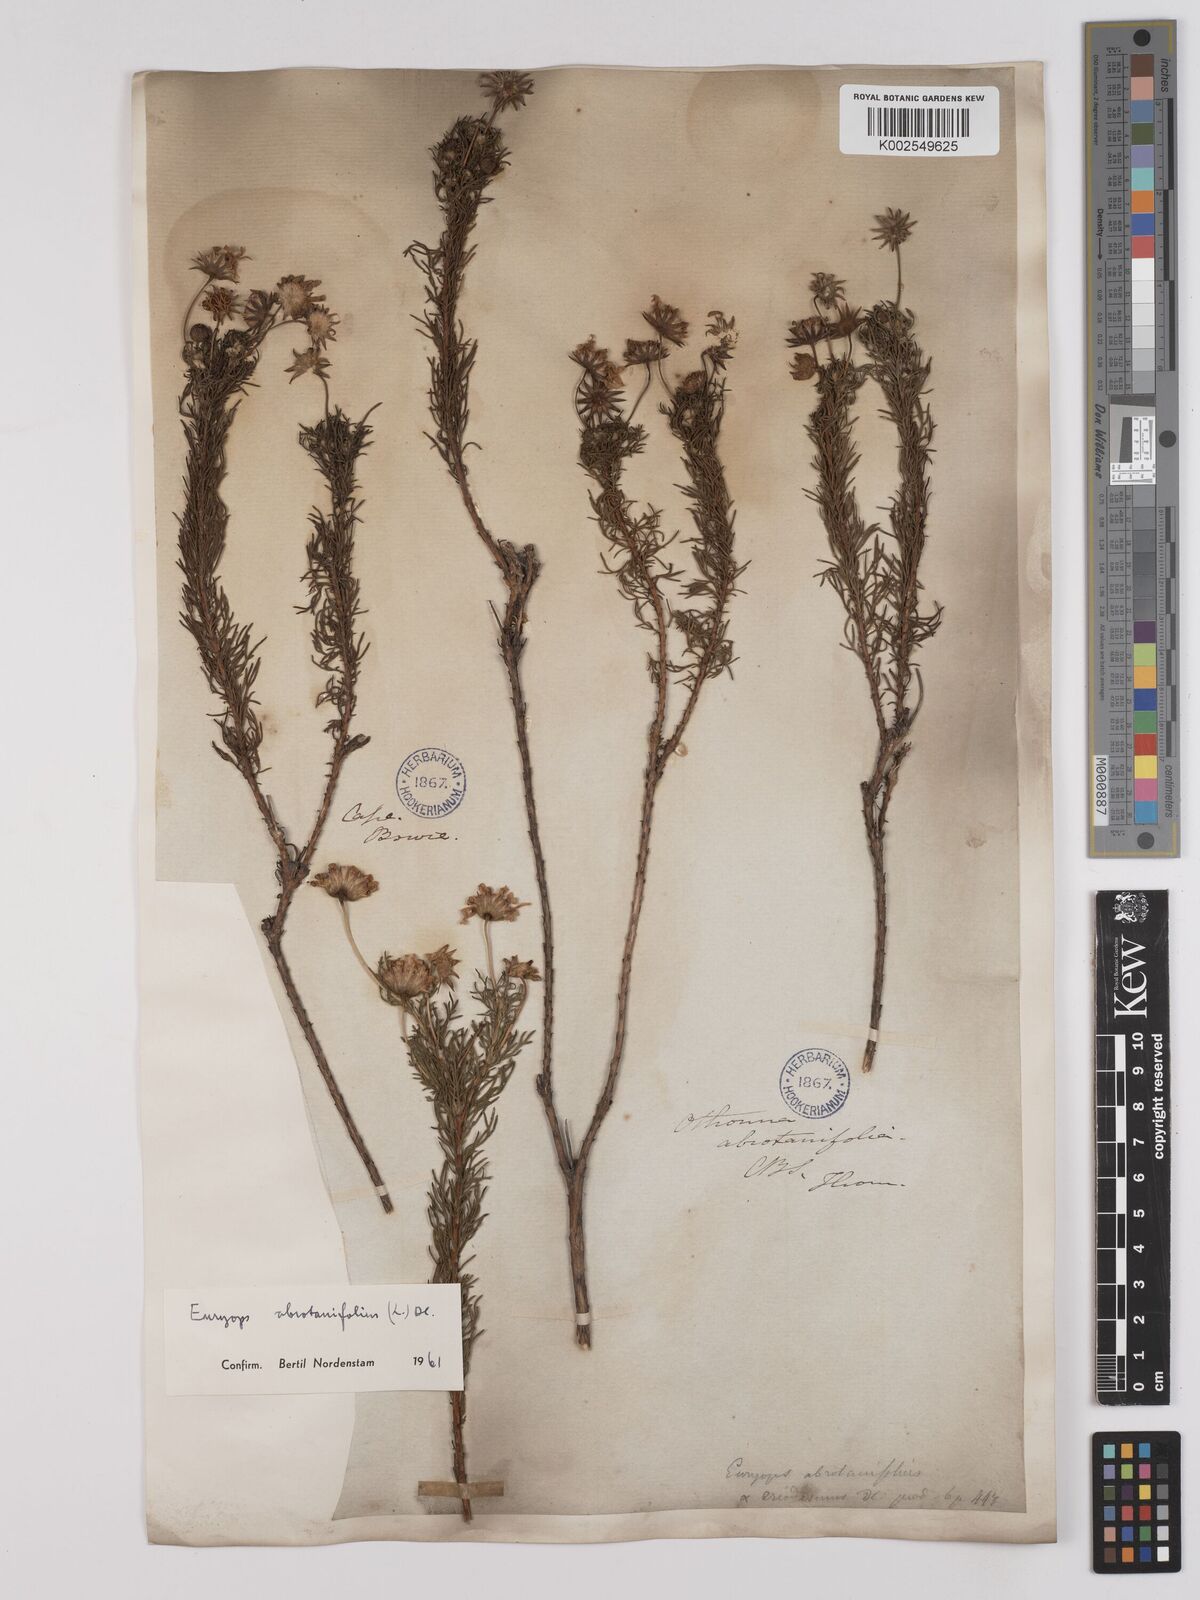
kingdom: Plantae
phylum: Tracheophyta
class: Magnoliopsida
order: Asterales
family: Asteraceae
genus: Euryops
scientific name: Euryops abrotanifolius
